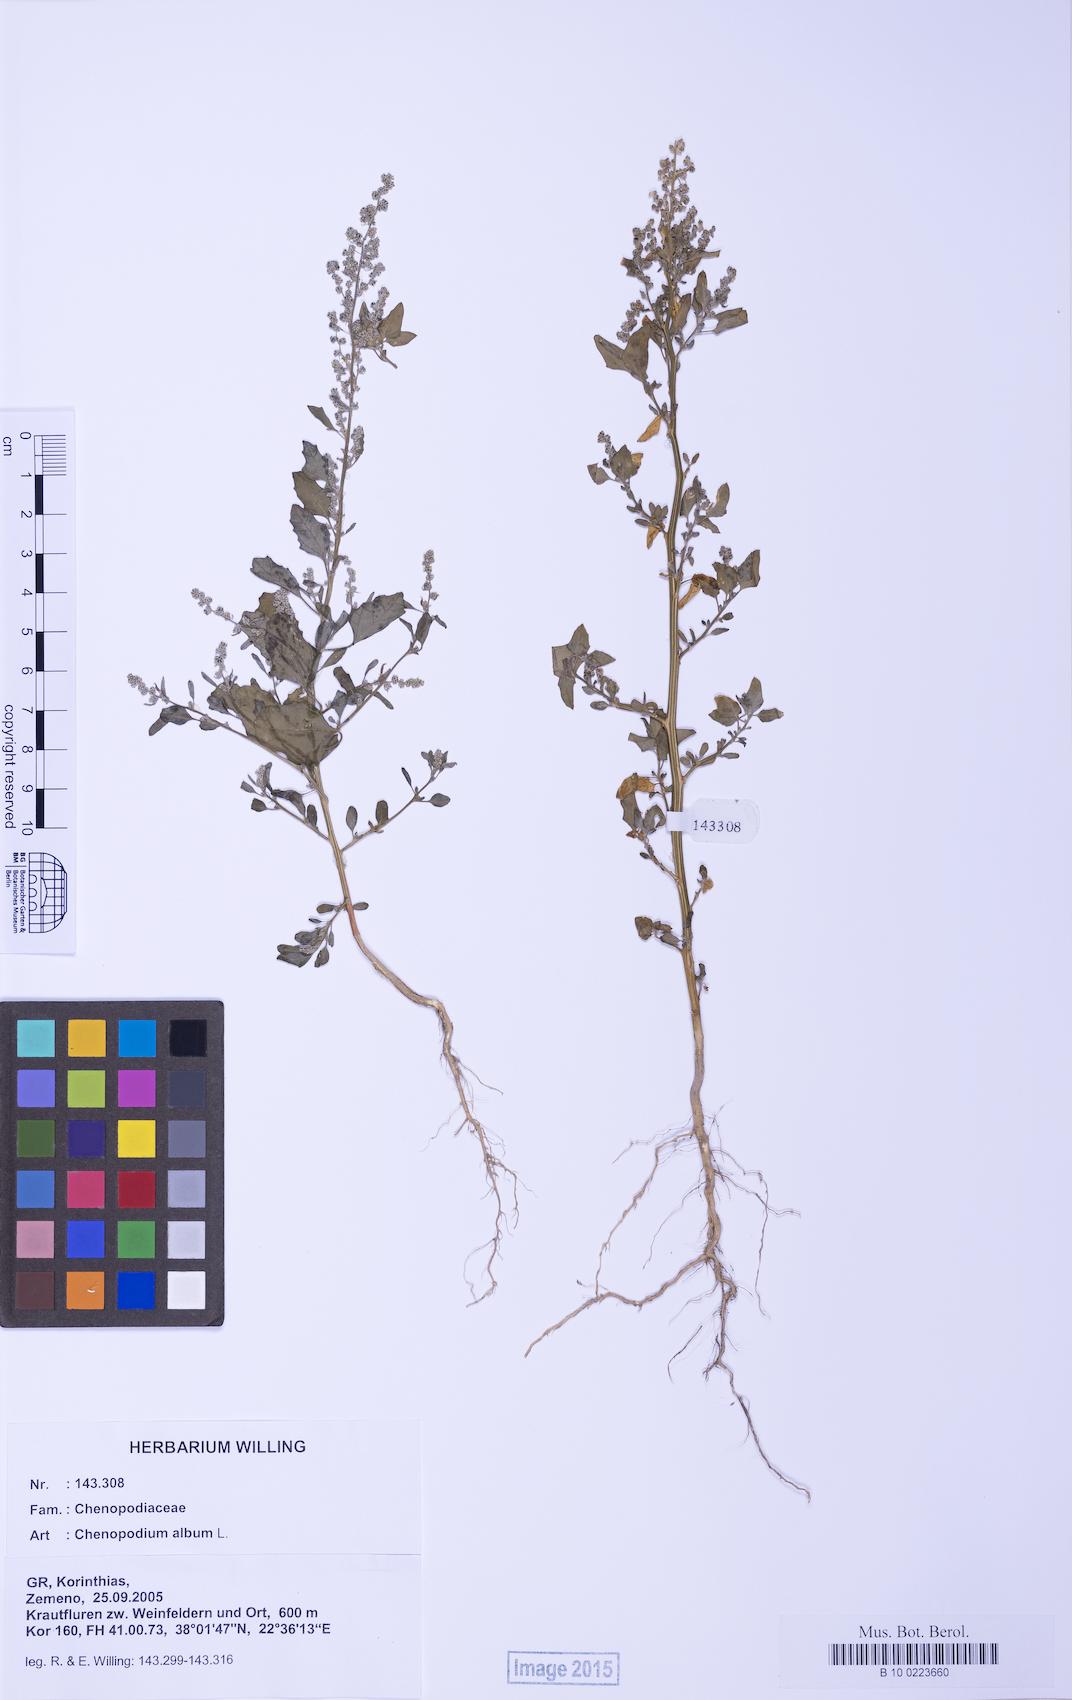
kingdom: Plantae
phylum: Tracheophyta
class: Magnoliopsida
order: Caryophyllales
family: Amaranthaceae
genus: Chenopodium
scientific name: Chenopodium album
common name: Fat-hen
